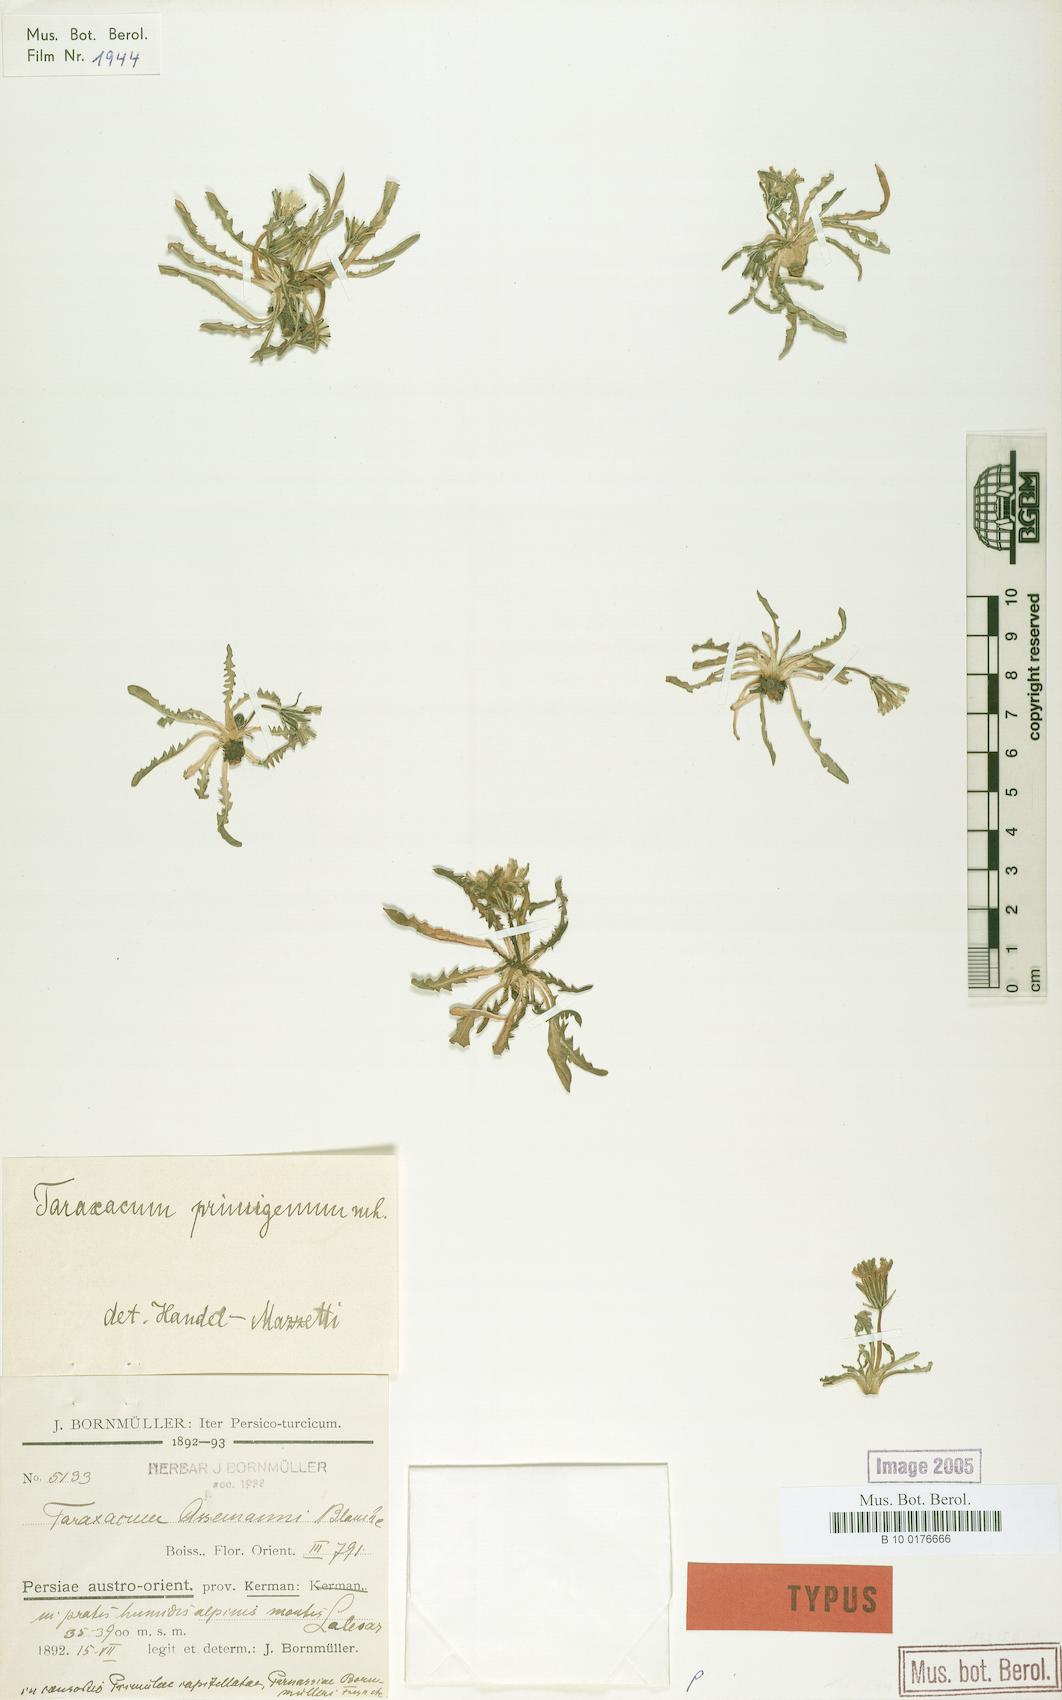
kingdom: Plantae
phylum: Tracheophyta
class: Magnoliopsida
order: Asterales
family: Asteraceae
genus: Taraxacum
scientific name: Taraxacum assemanii
